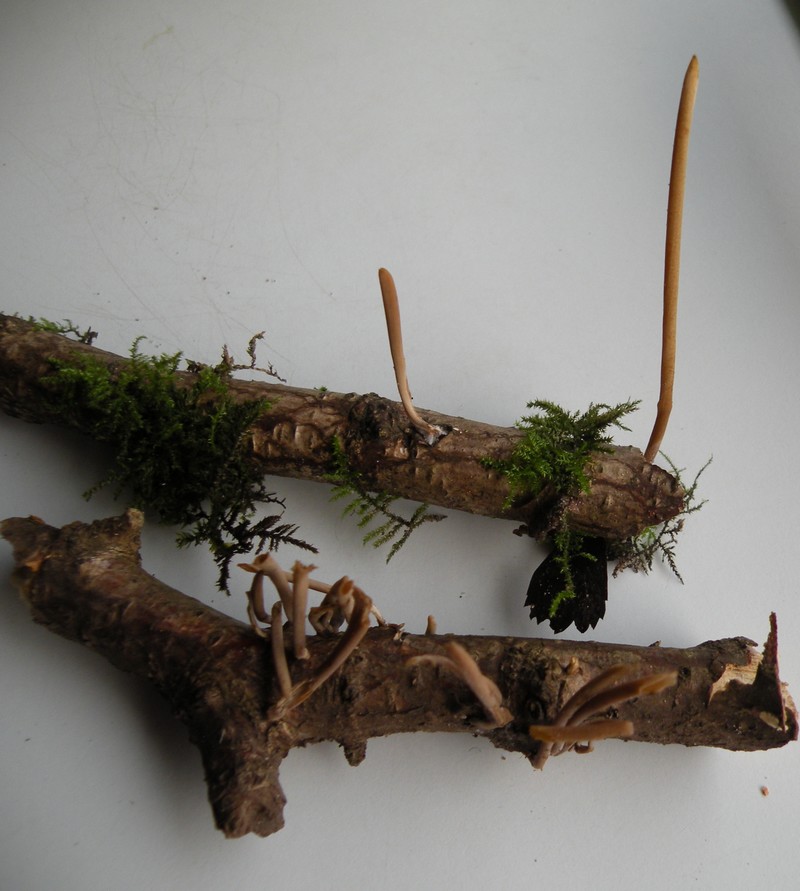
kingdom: Fungi
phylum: Basidiomycota
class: Agaricomycetes
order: Agaricales
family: Typhulaceae
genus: Typhula
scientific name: Typhula fistulosa
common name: pibet rørkølle
